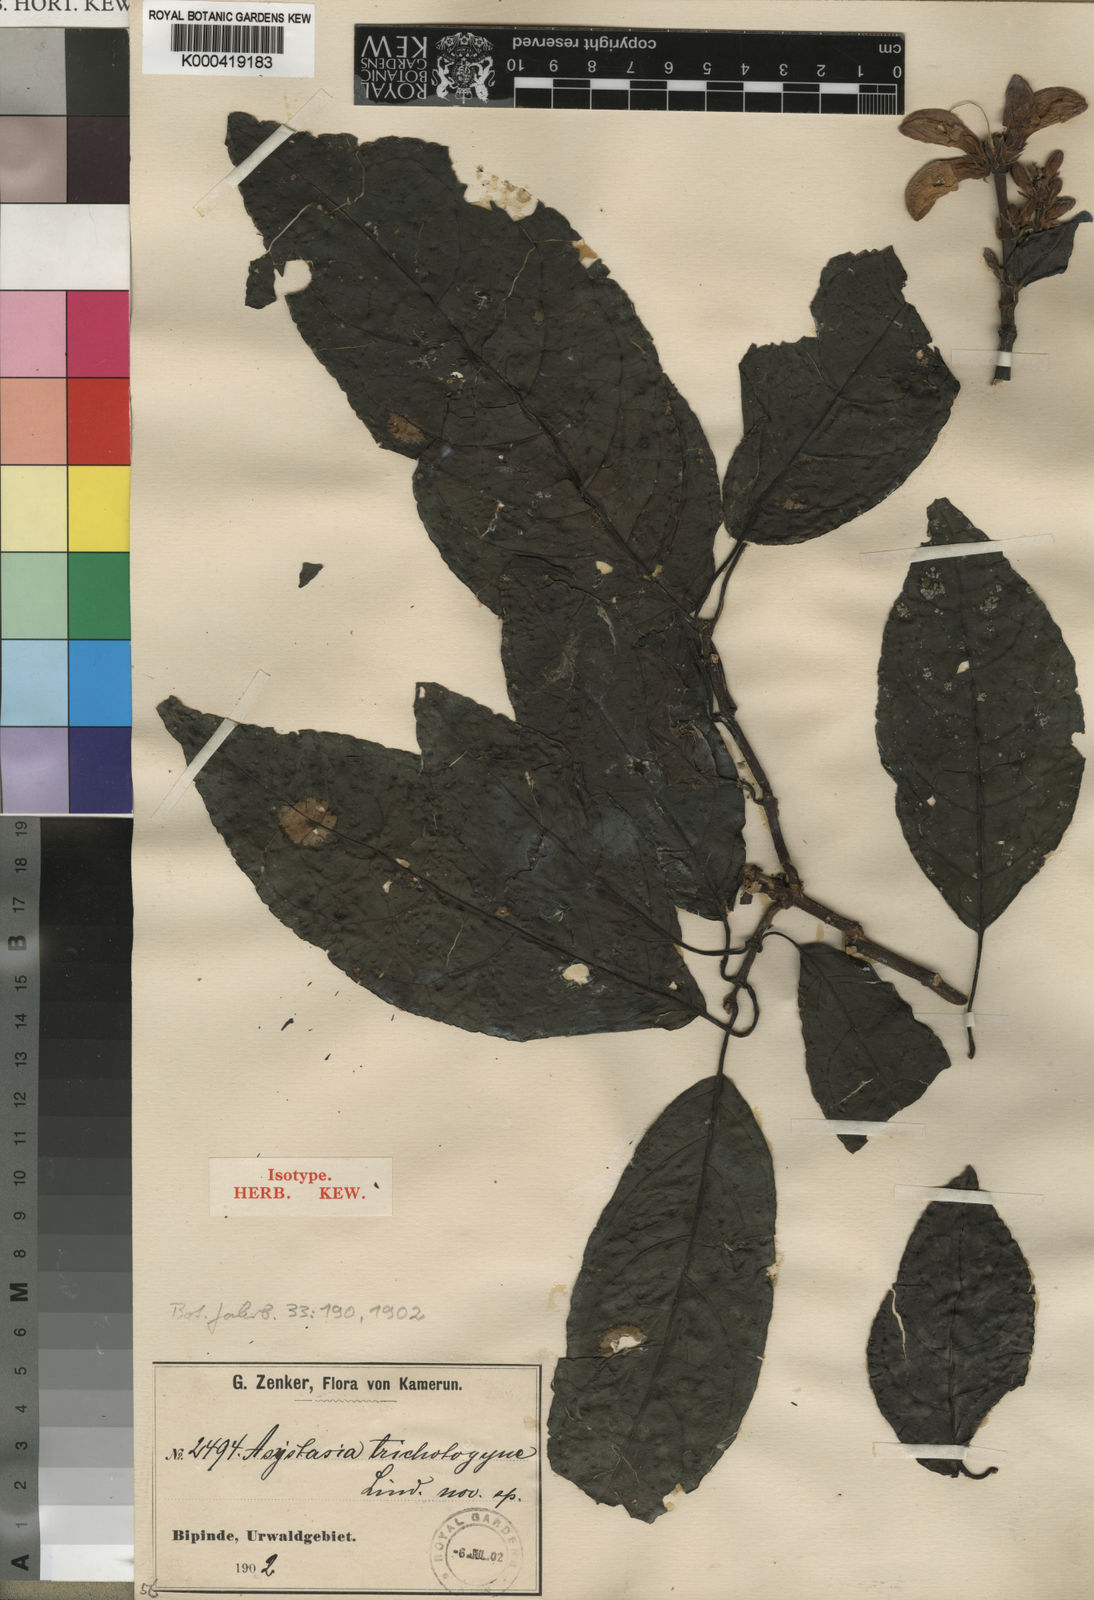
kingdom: Plantae
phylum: Tracheophyta
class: Magnoliopsida
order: Lamiales
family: Acanthaceae
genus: Asystasia
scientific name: Asystasia trichotogyne
